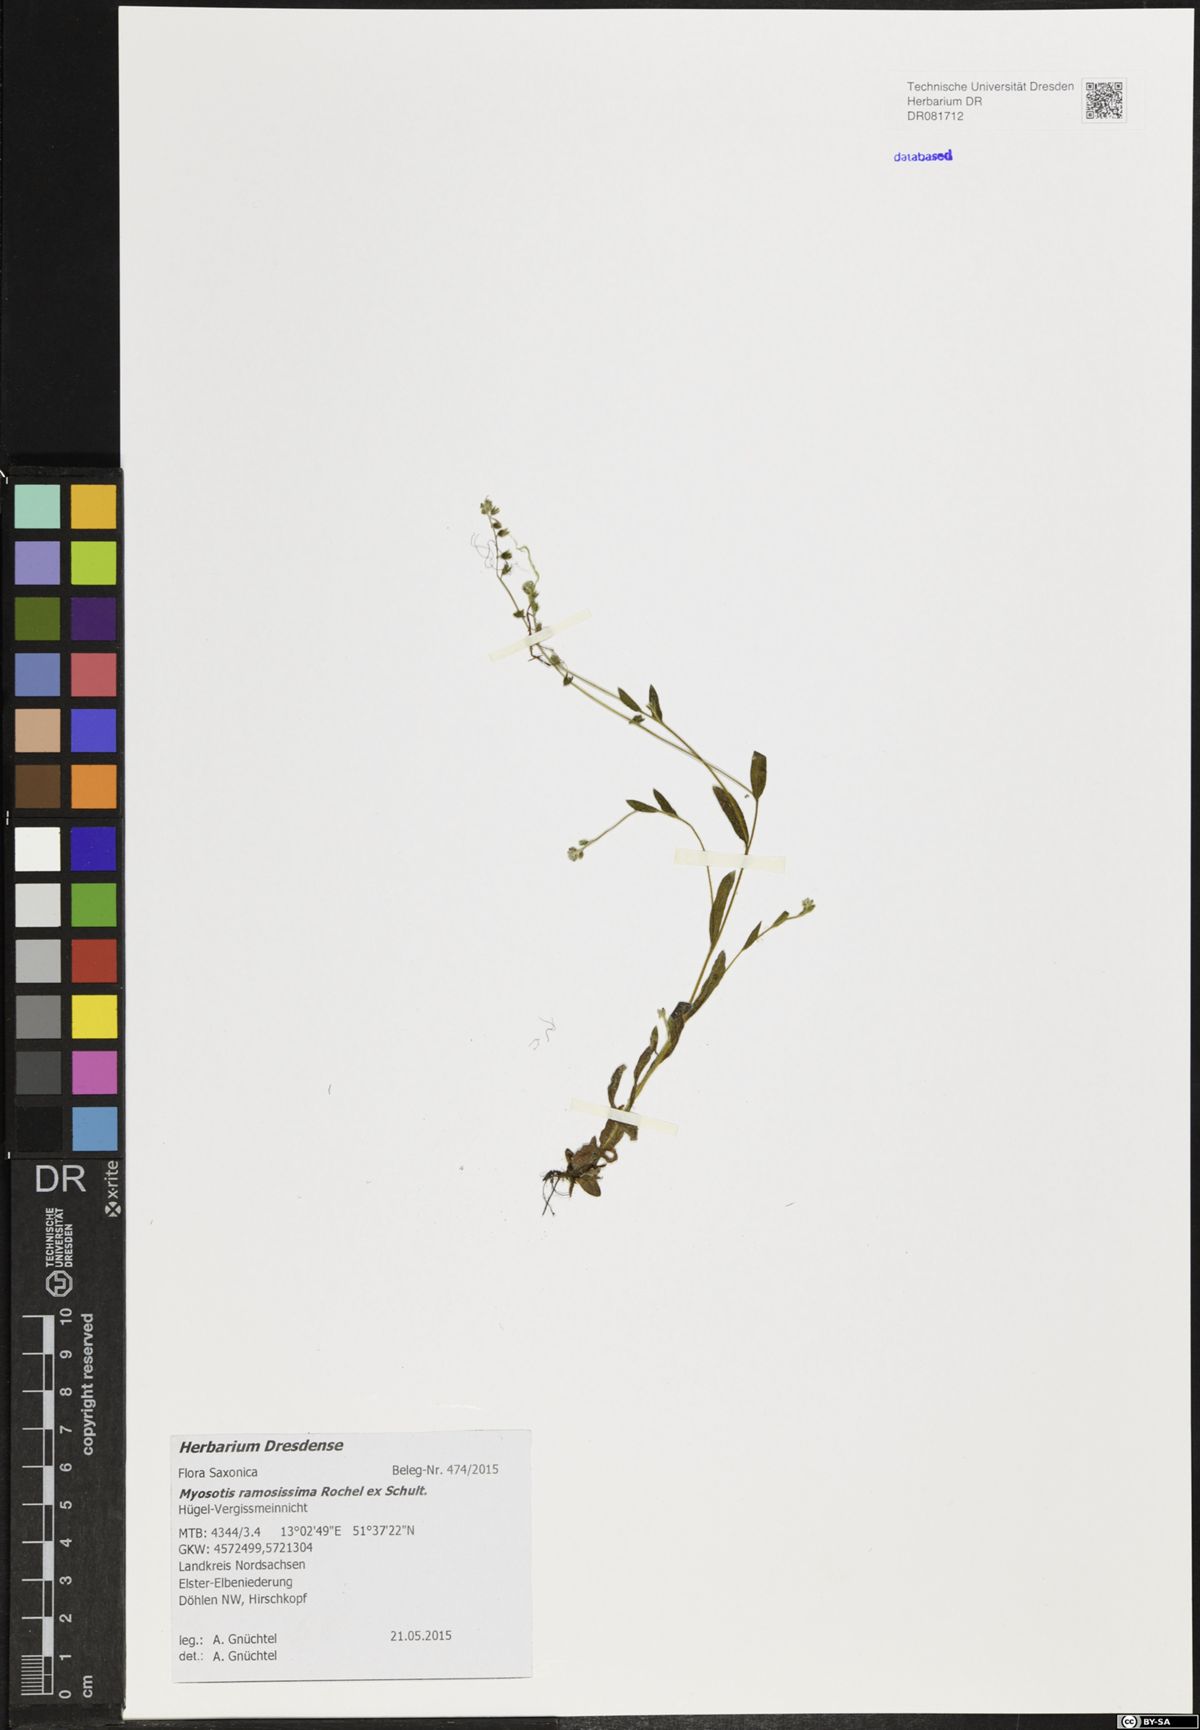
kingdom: Plantae
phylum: Tracheophyta
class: Magnoliopsida
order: Boraginales
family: Boraginaceae
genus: Myosotis
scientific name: Myosotis ramosissima
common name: Early forget-me-not
